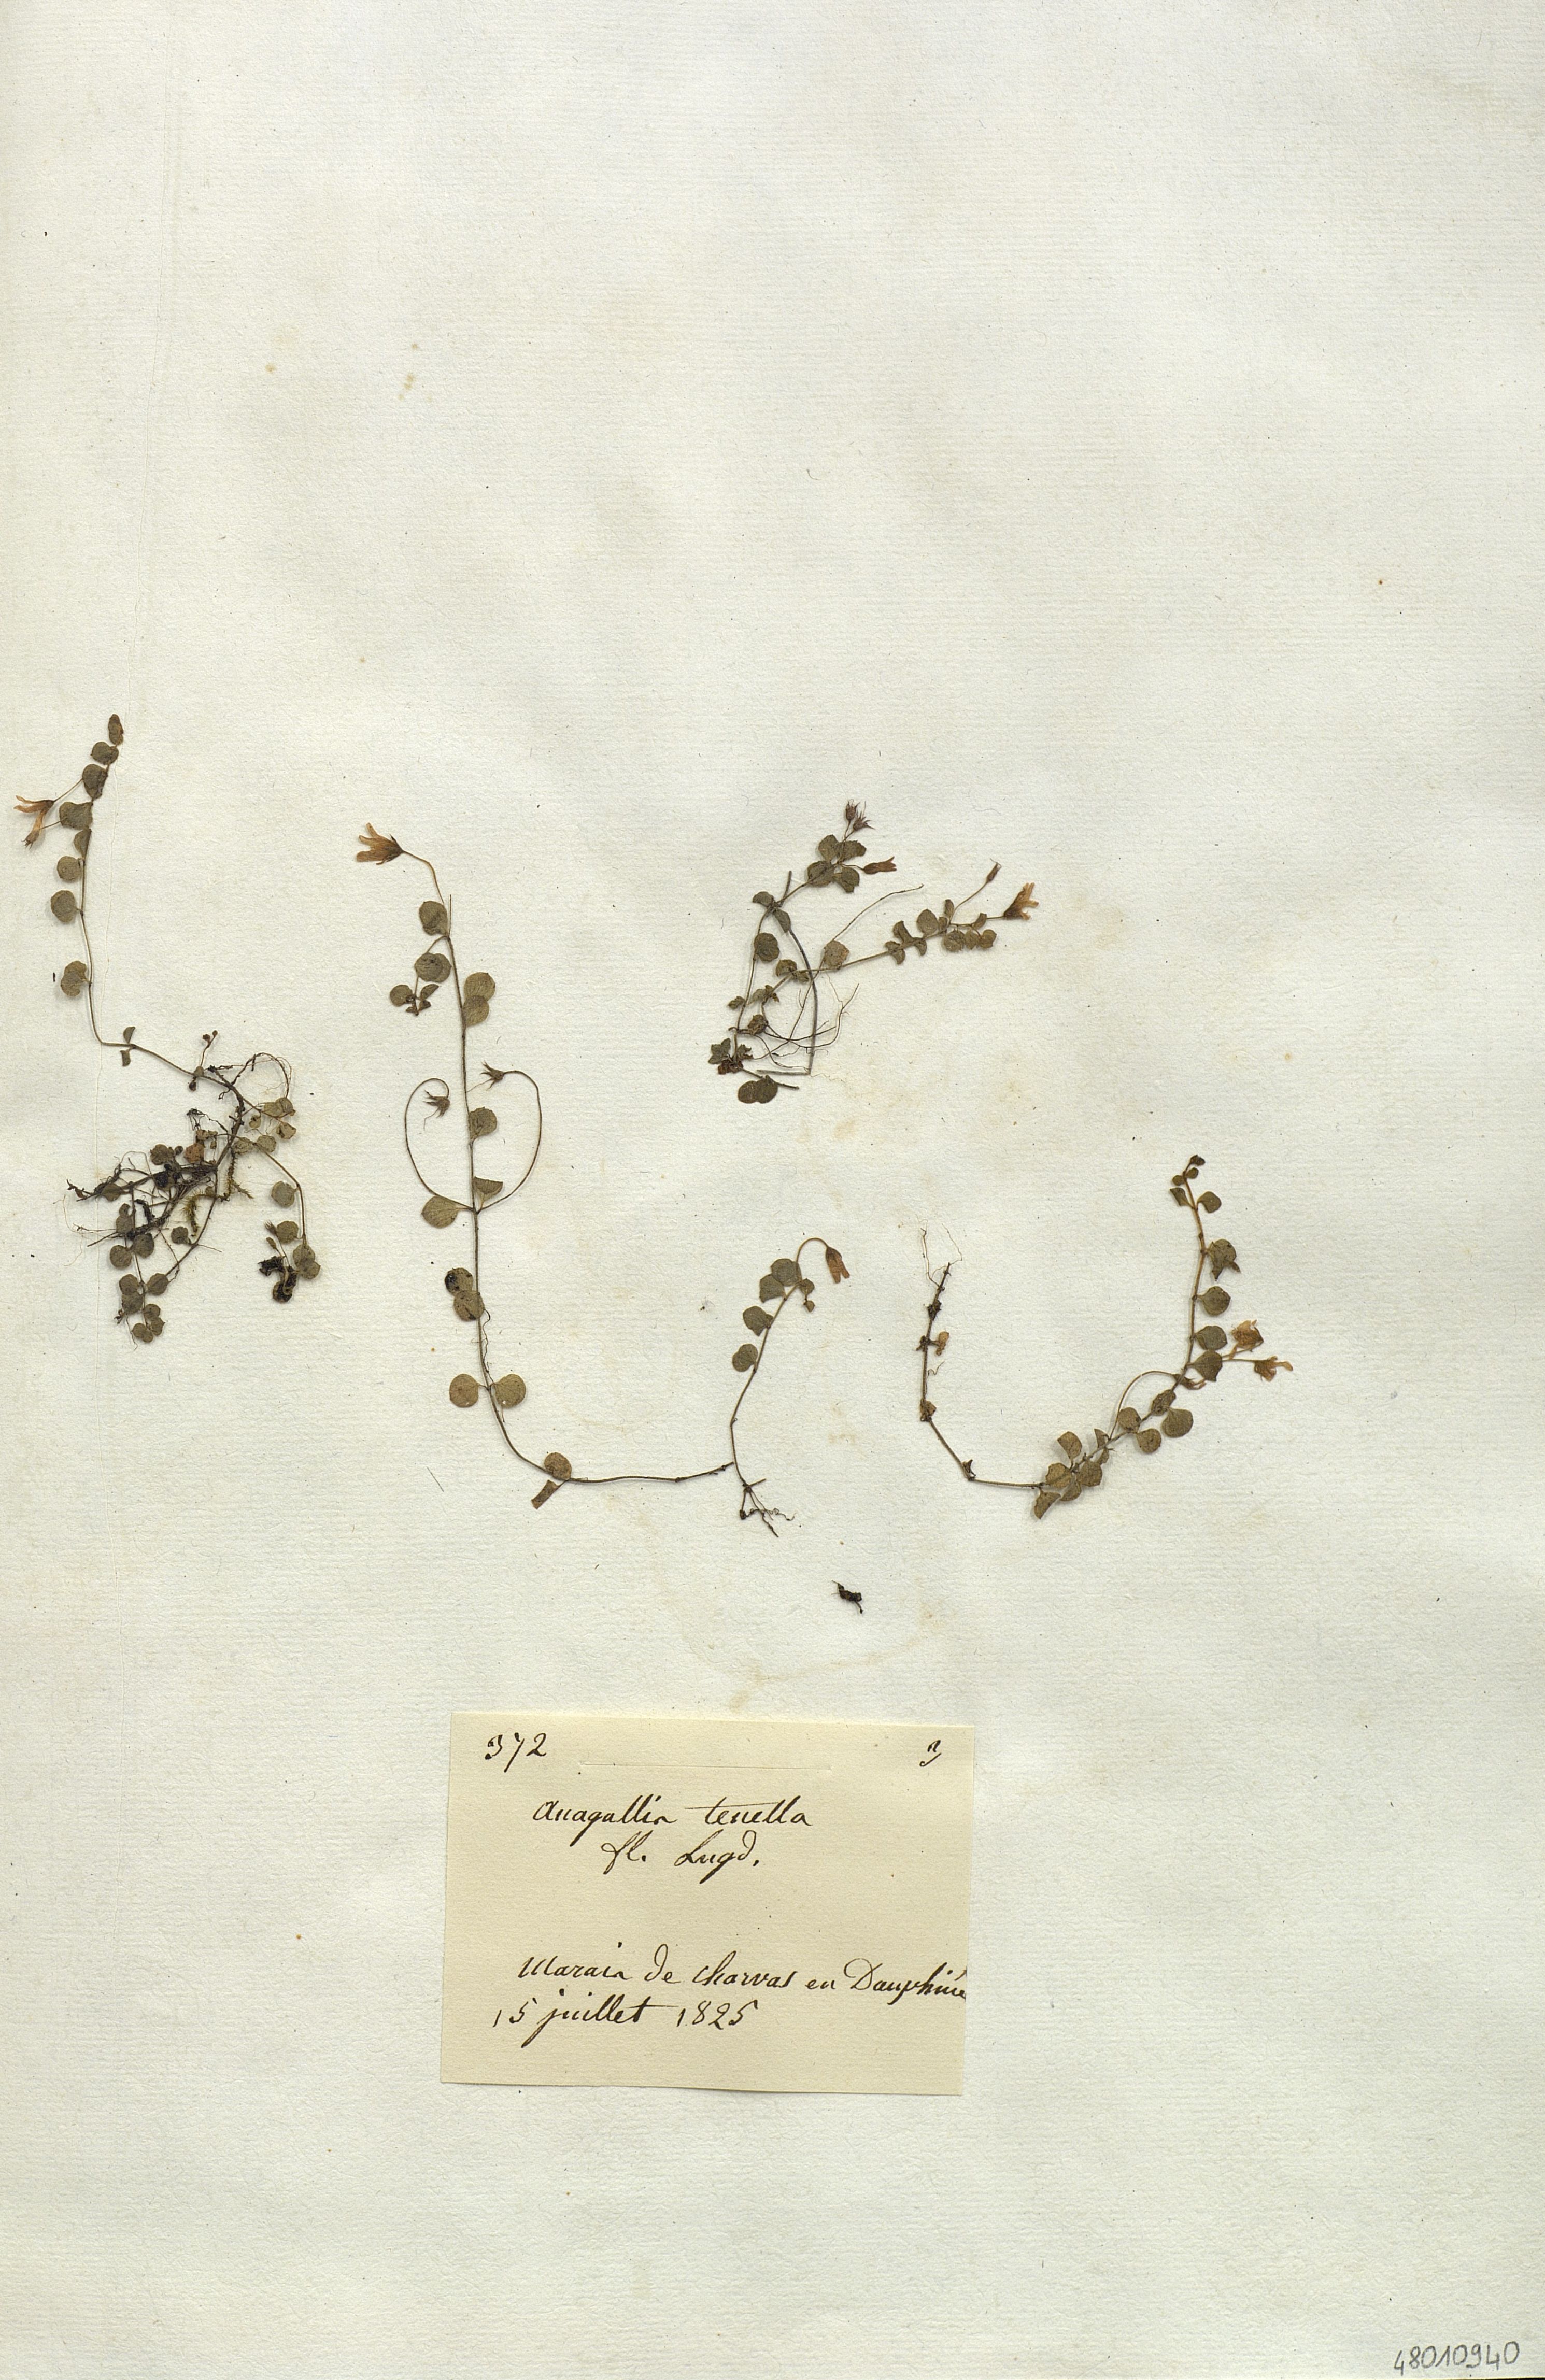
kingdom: Plantae
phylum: Tracheophyta
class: Magnoliopsida
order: Ericales
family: Primulaceae
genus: Lysimachia
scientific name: Lysimachia tenella
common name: European bog pimpernel
